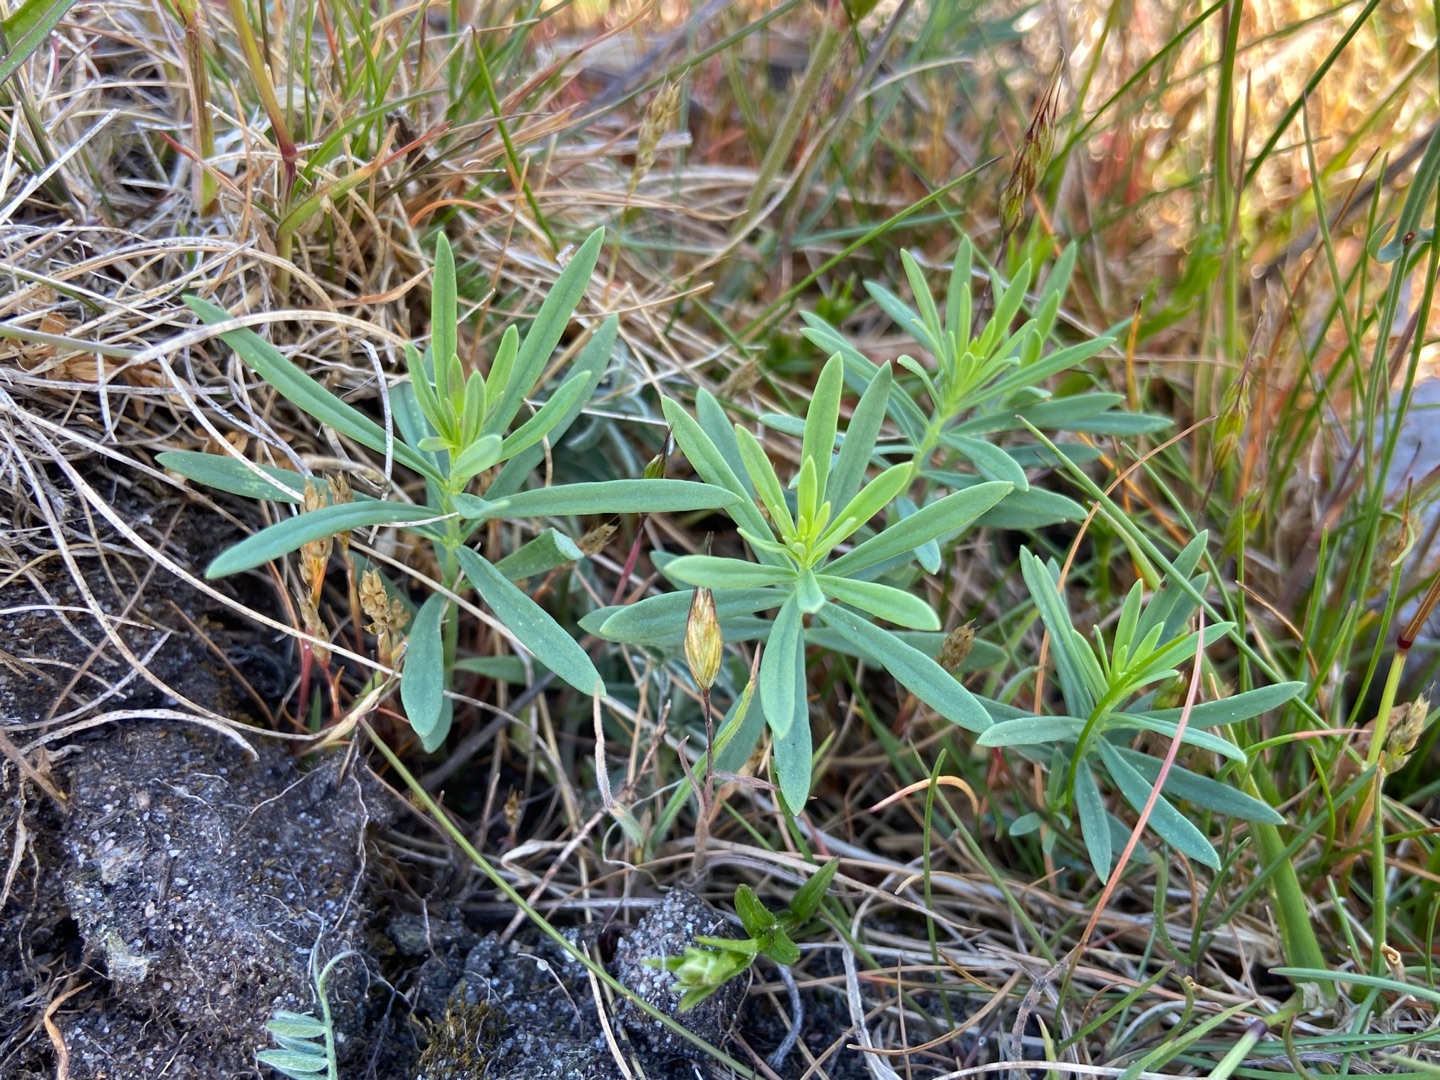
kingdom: Plantae
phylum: Tracheophyta
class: Magnoliopsida
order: Lamiales
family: Plantaginaceae
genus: Linaria
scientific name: Linaria
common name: Torskemund (Linaria-slægten)
